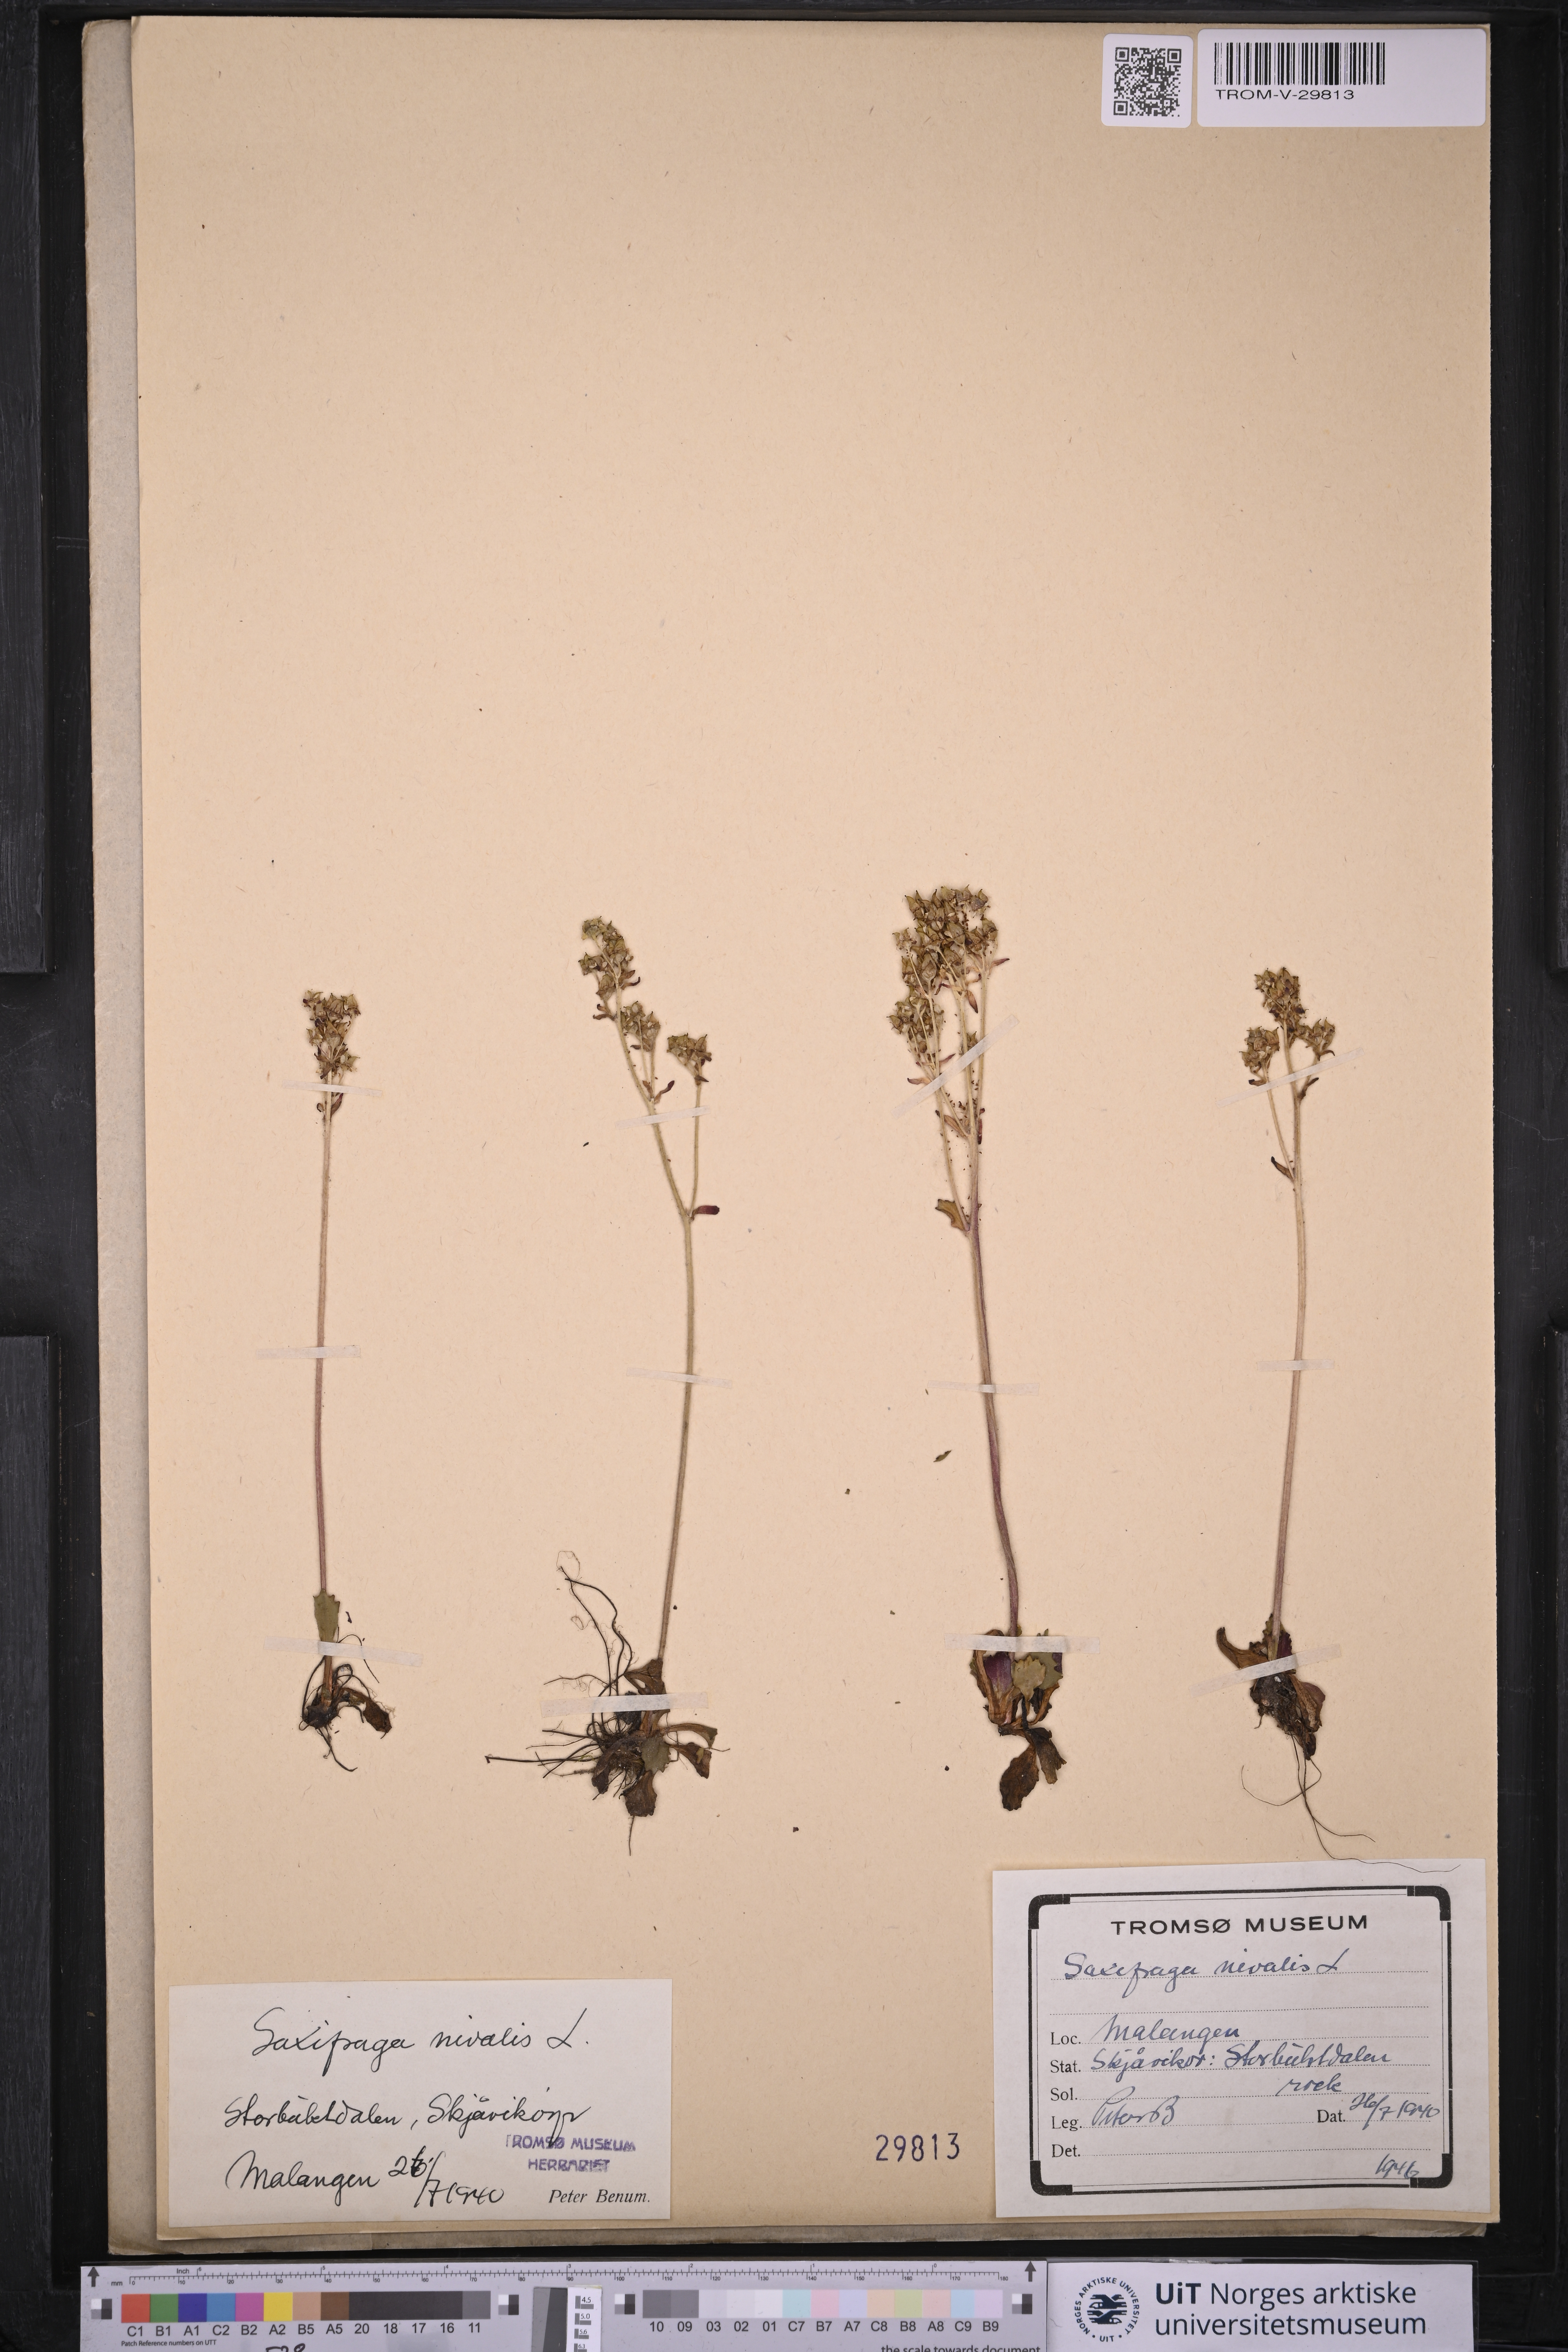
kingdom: Plantae
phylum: Tracheophyta
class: Magnoliopsida
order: Saxifragales
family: Saxifragaceae
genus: Micranthes
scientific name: Micranthes nivalis
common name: Alpine saxifrage
